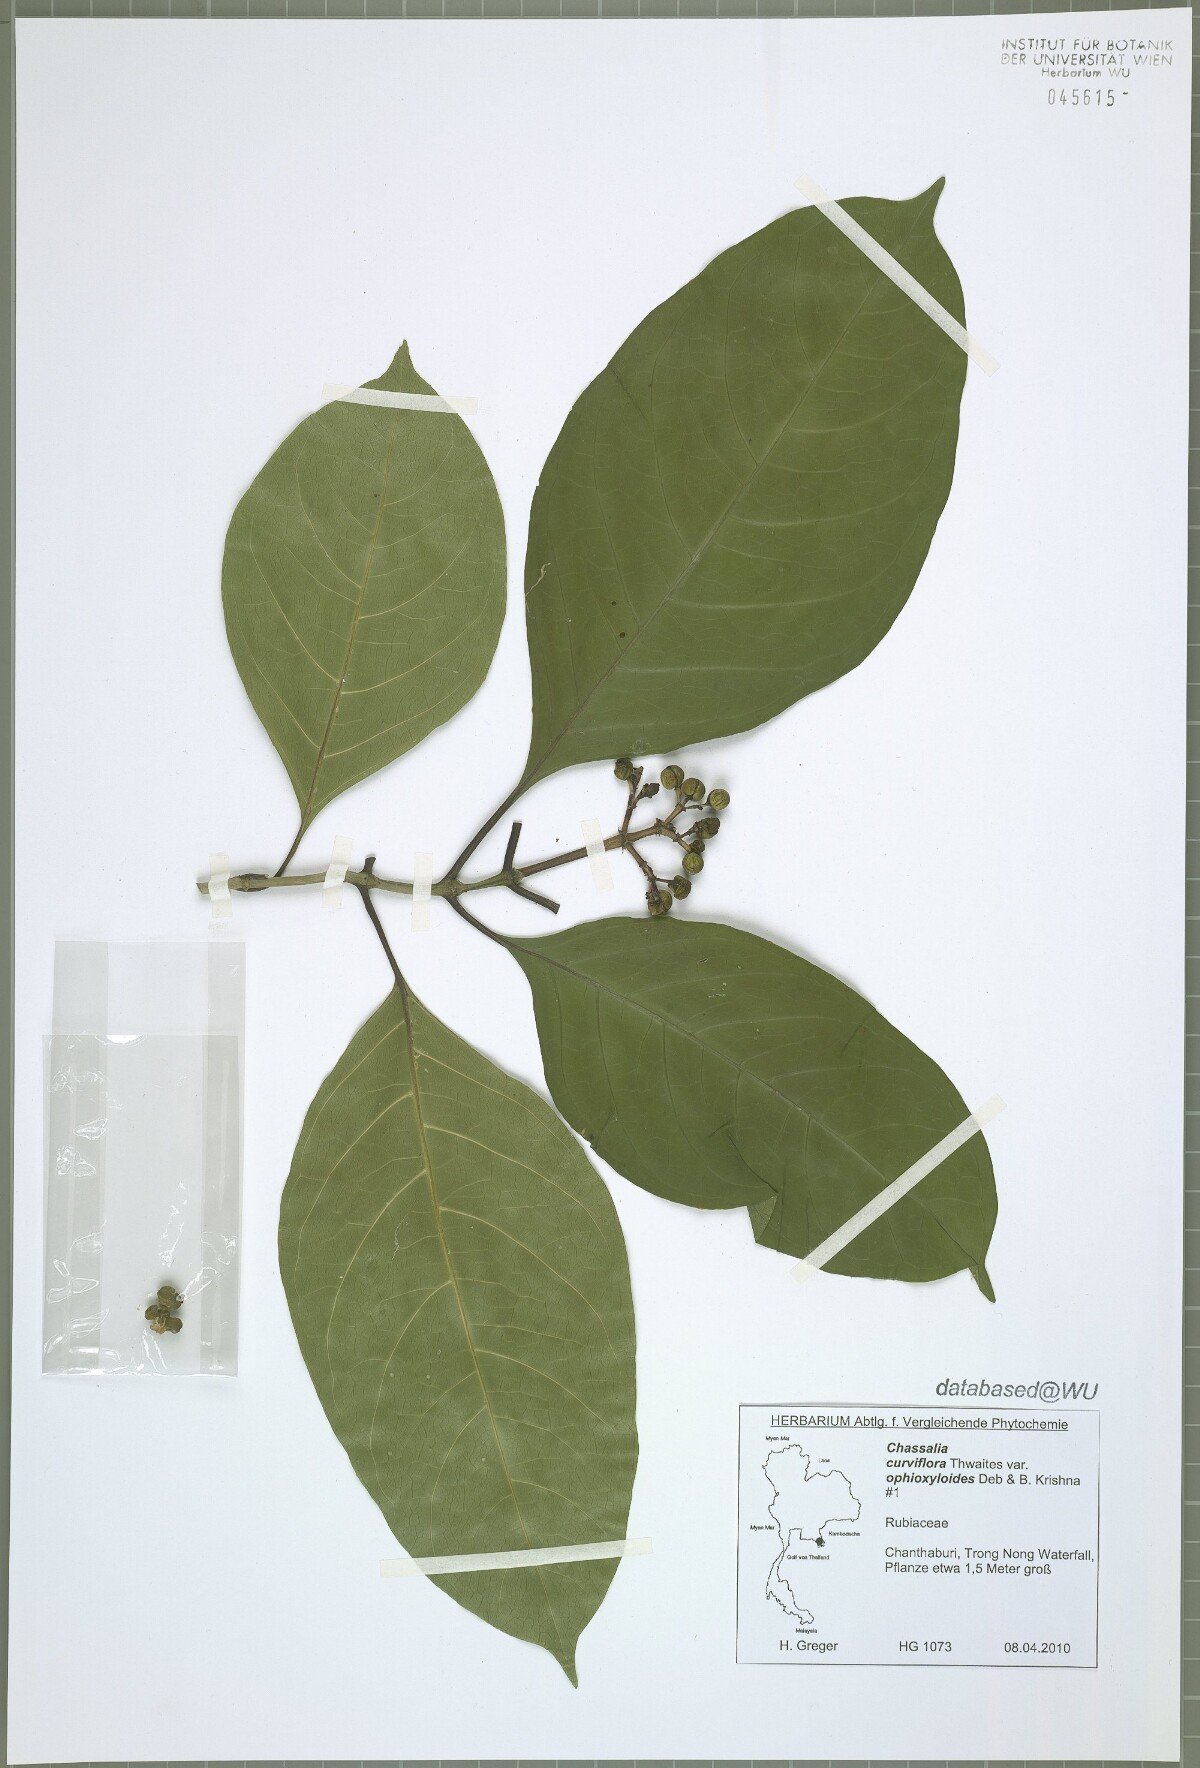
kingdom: Plantae
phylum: Tracheophyta
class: Magnoliopsida
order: Gentianales
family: Rubiaceae
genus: Chassalia
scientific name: Chassalia curviflora
